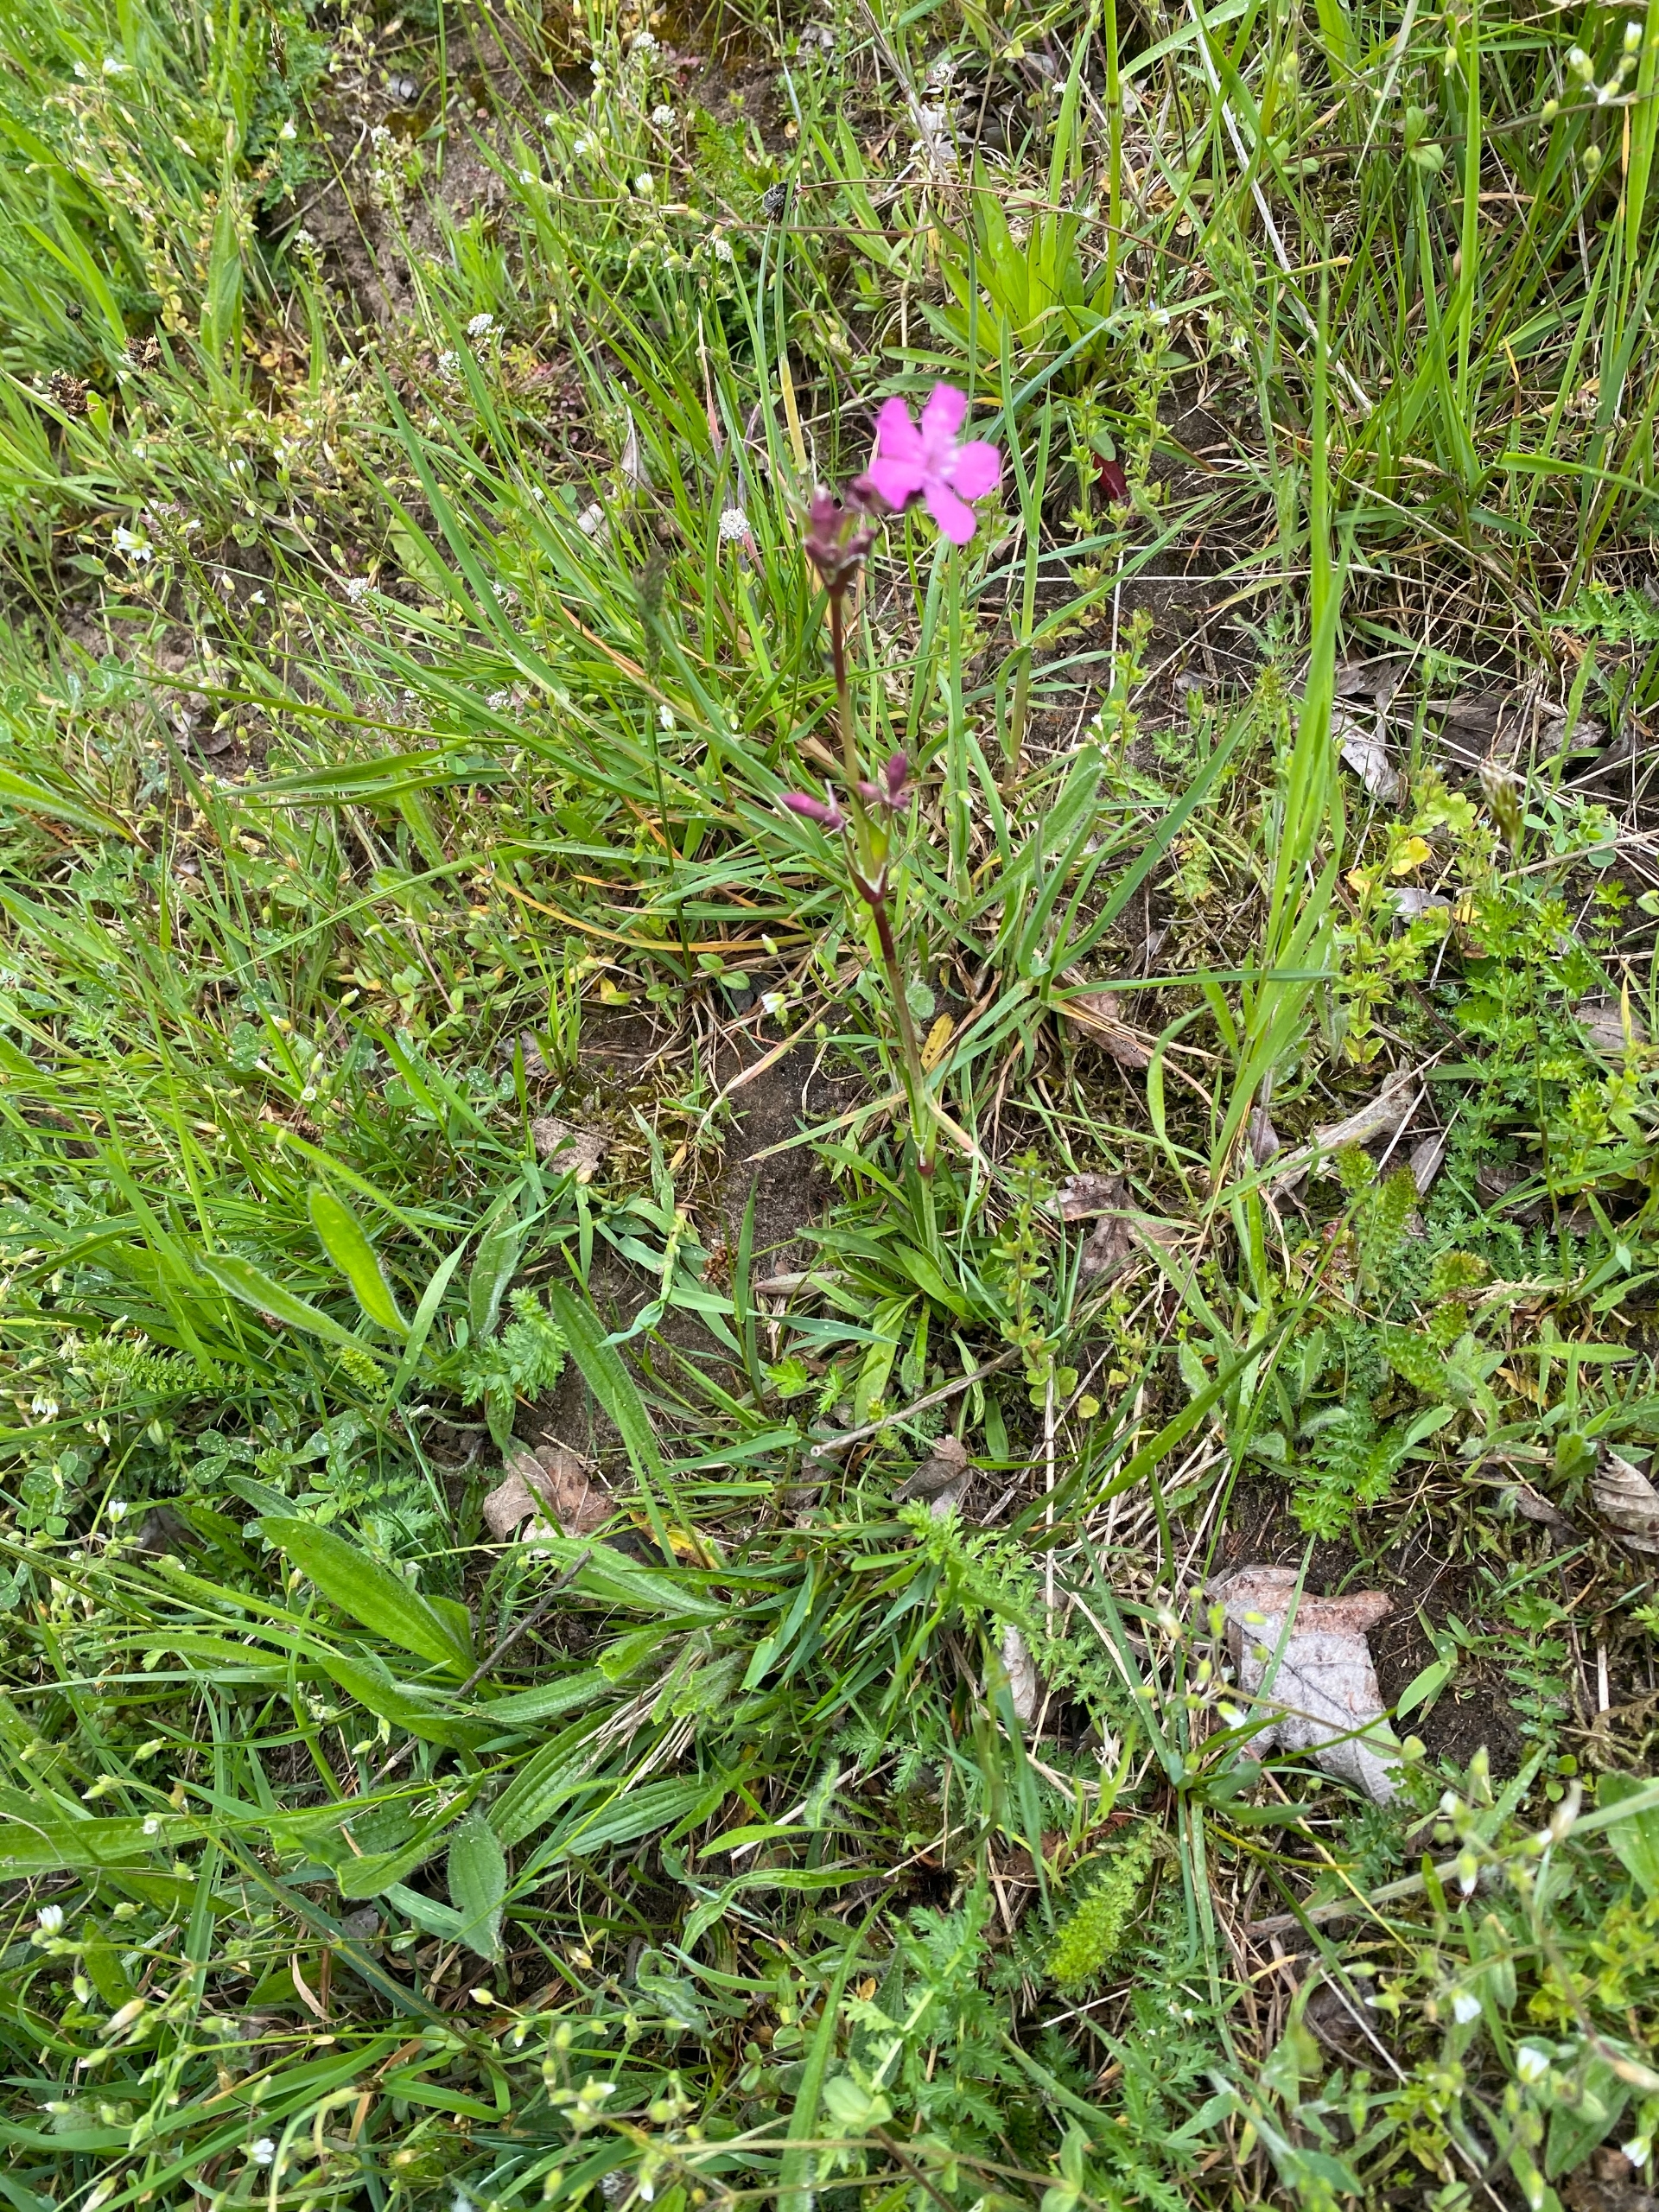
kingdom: Plantae
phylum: Tracheophyta
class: Magnoliopsida
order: Caryophyllales
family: Caryophyllaceae
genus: Viscaria
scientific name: Viscaria vulgaris
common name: Tjærenellike
